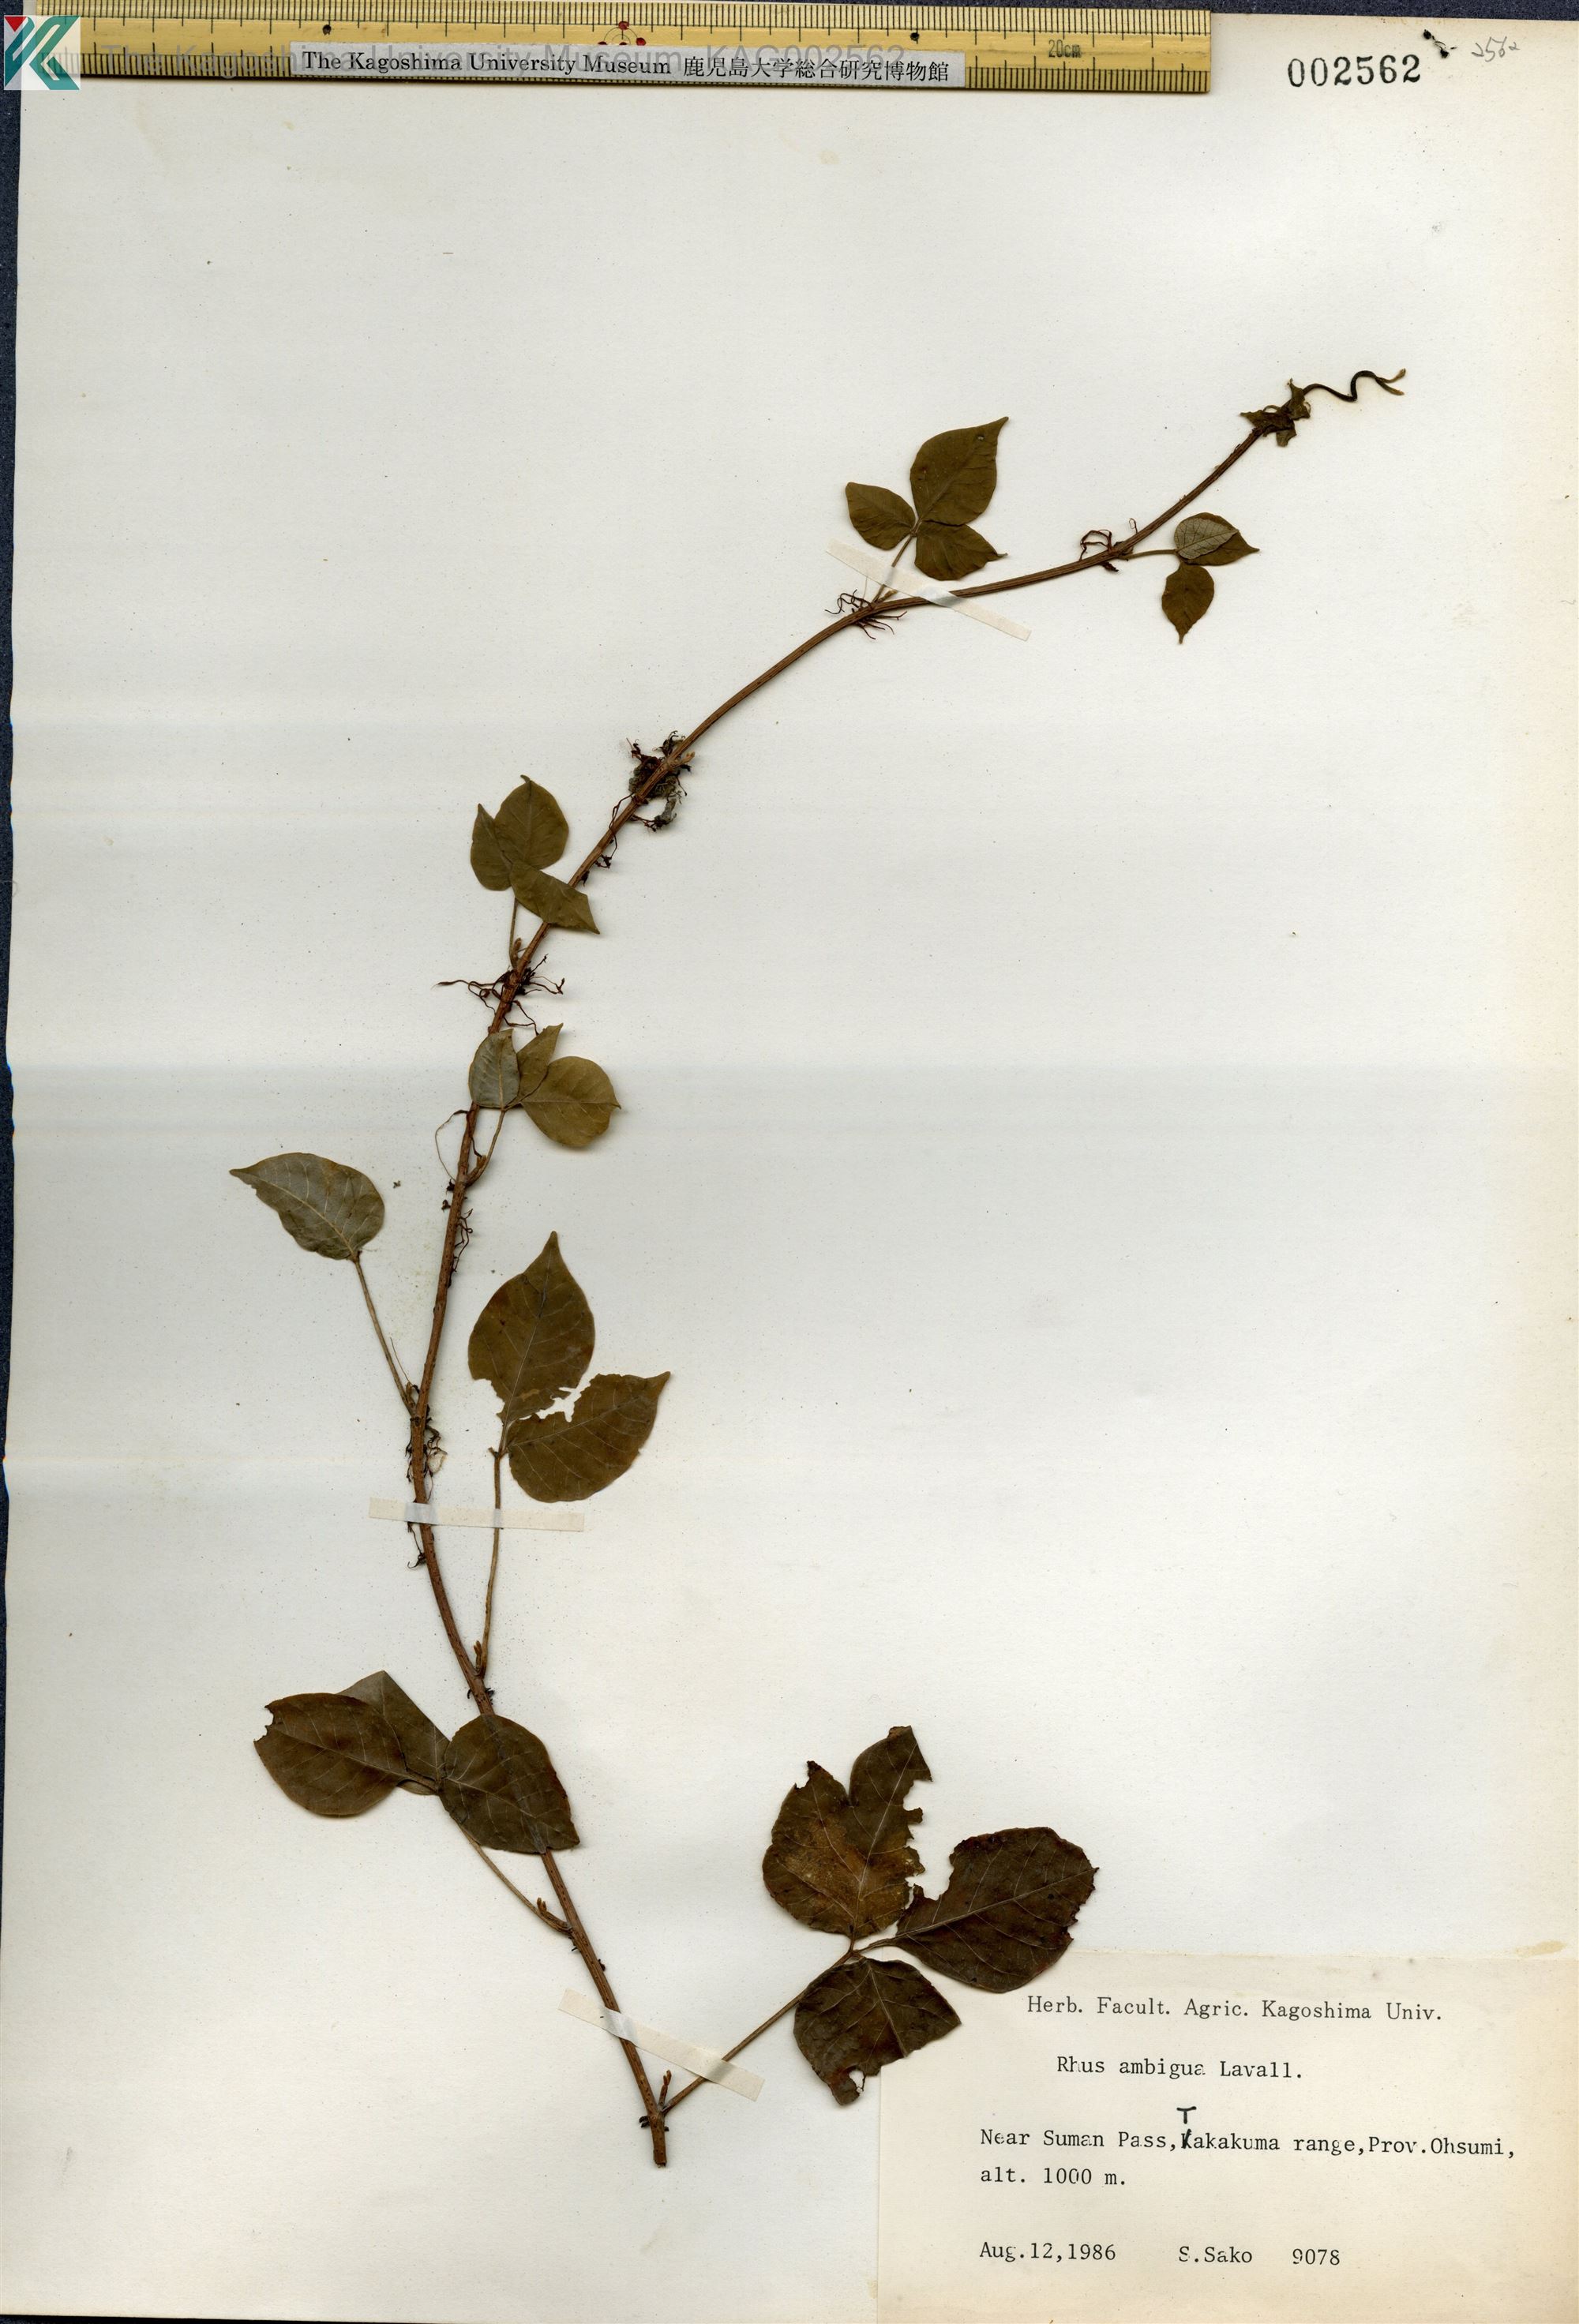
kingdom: Plantae
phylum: Tracheophyta
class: Magnoliopsida
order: Sapindales
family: Anacardiaceae
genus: Toxicodendron
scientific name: Toxicodendron orientale
